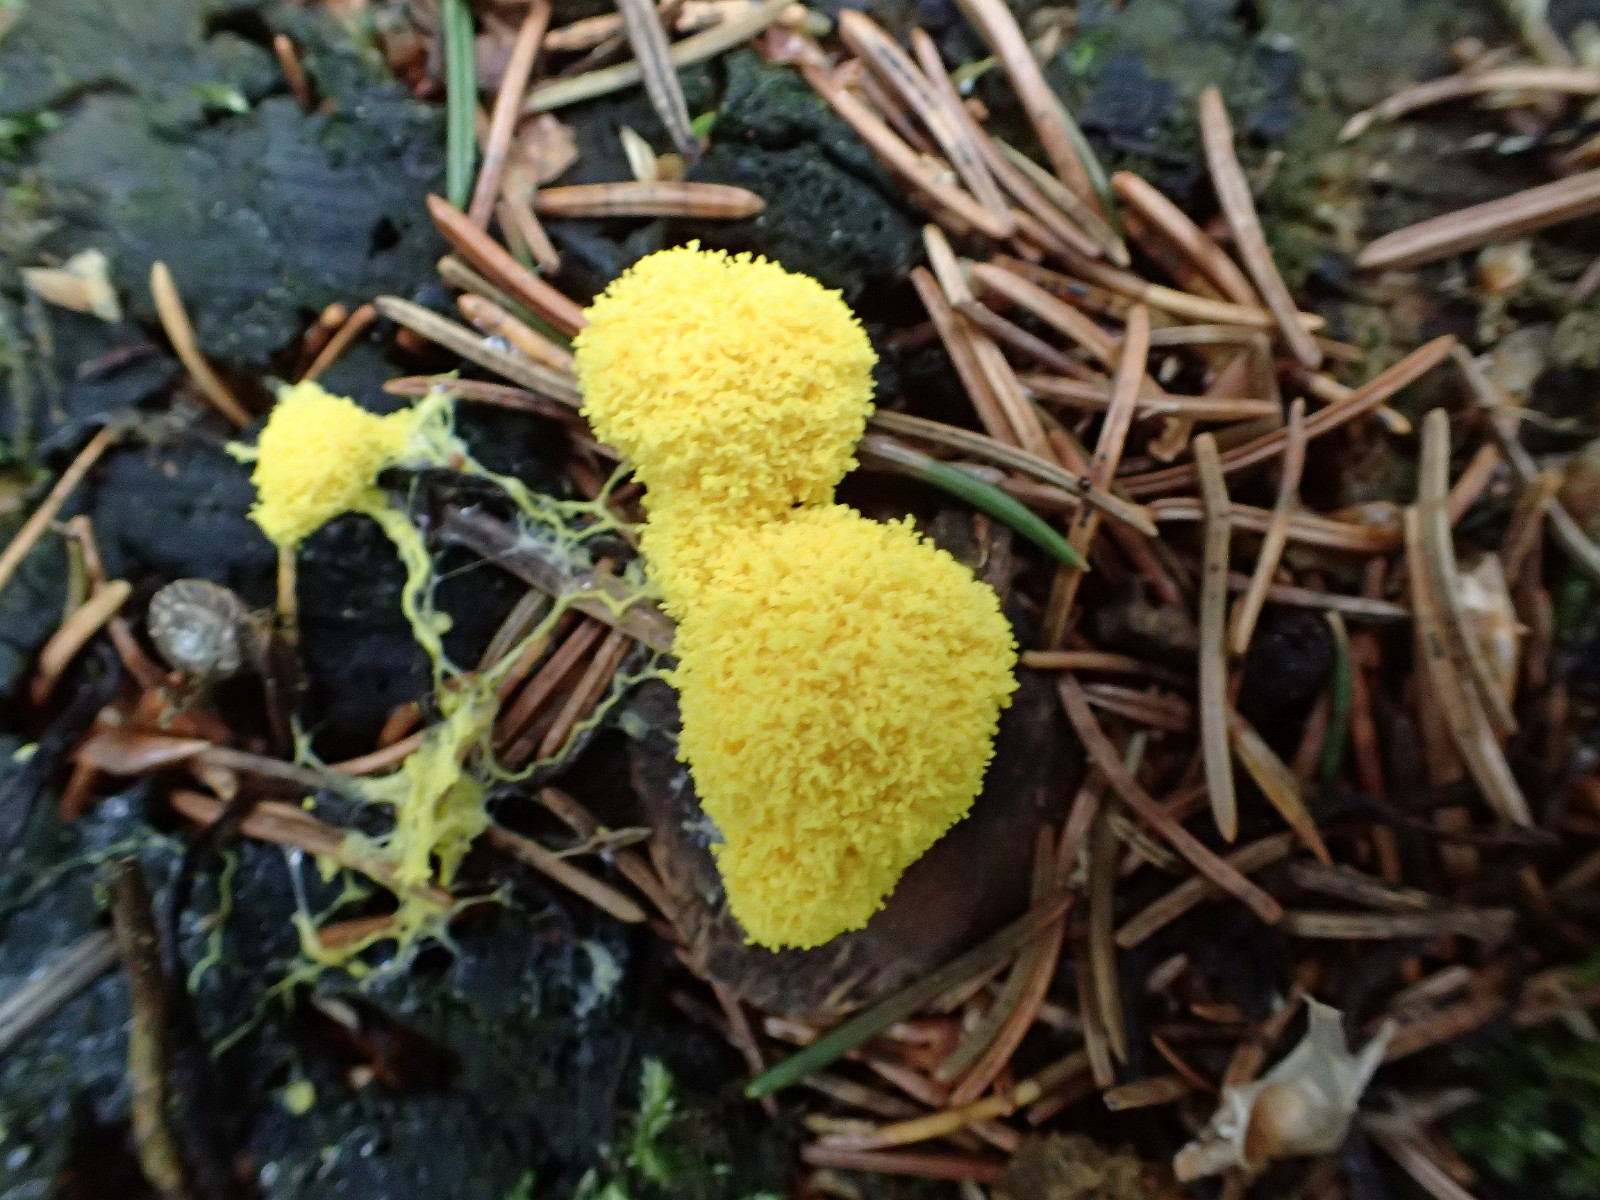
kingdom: Protozoa
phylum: Mycetozoa
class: Myxomycetes
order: Physarales
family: Physaraceae
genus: Fuligo
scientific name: Fuligo septica
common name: gul troldsmør
